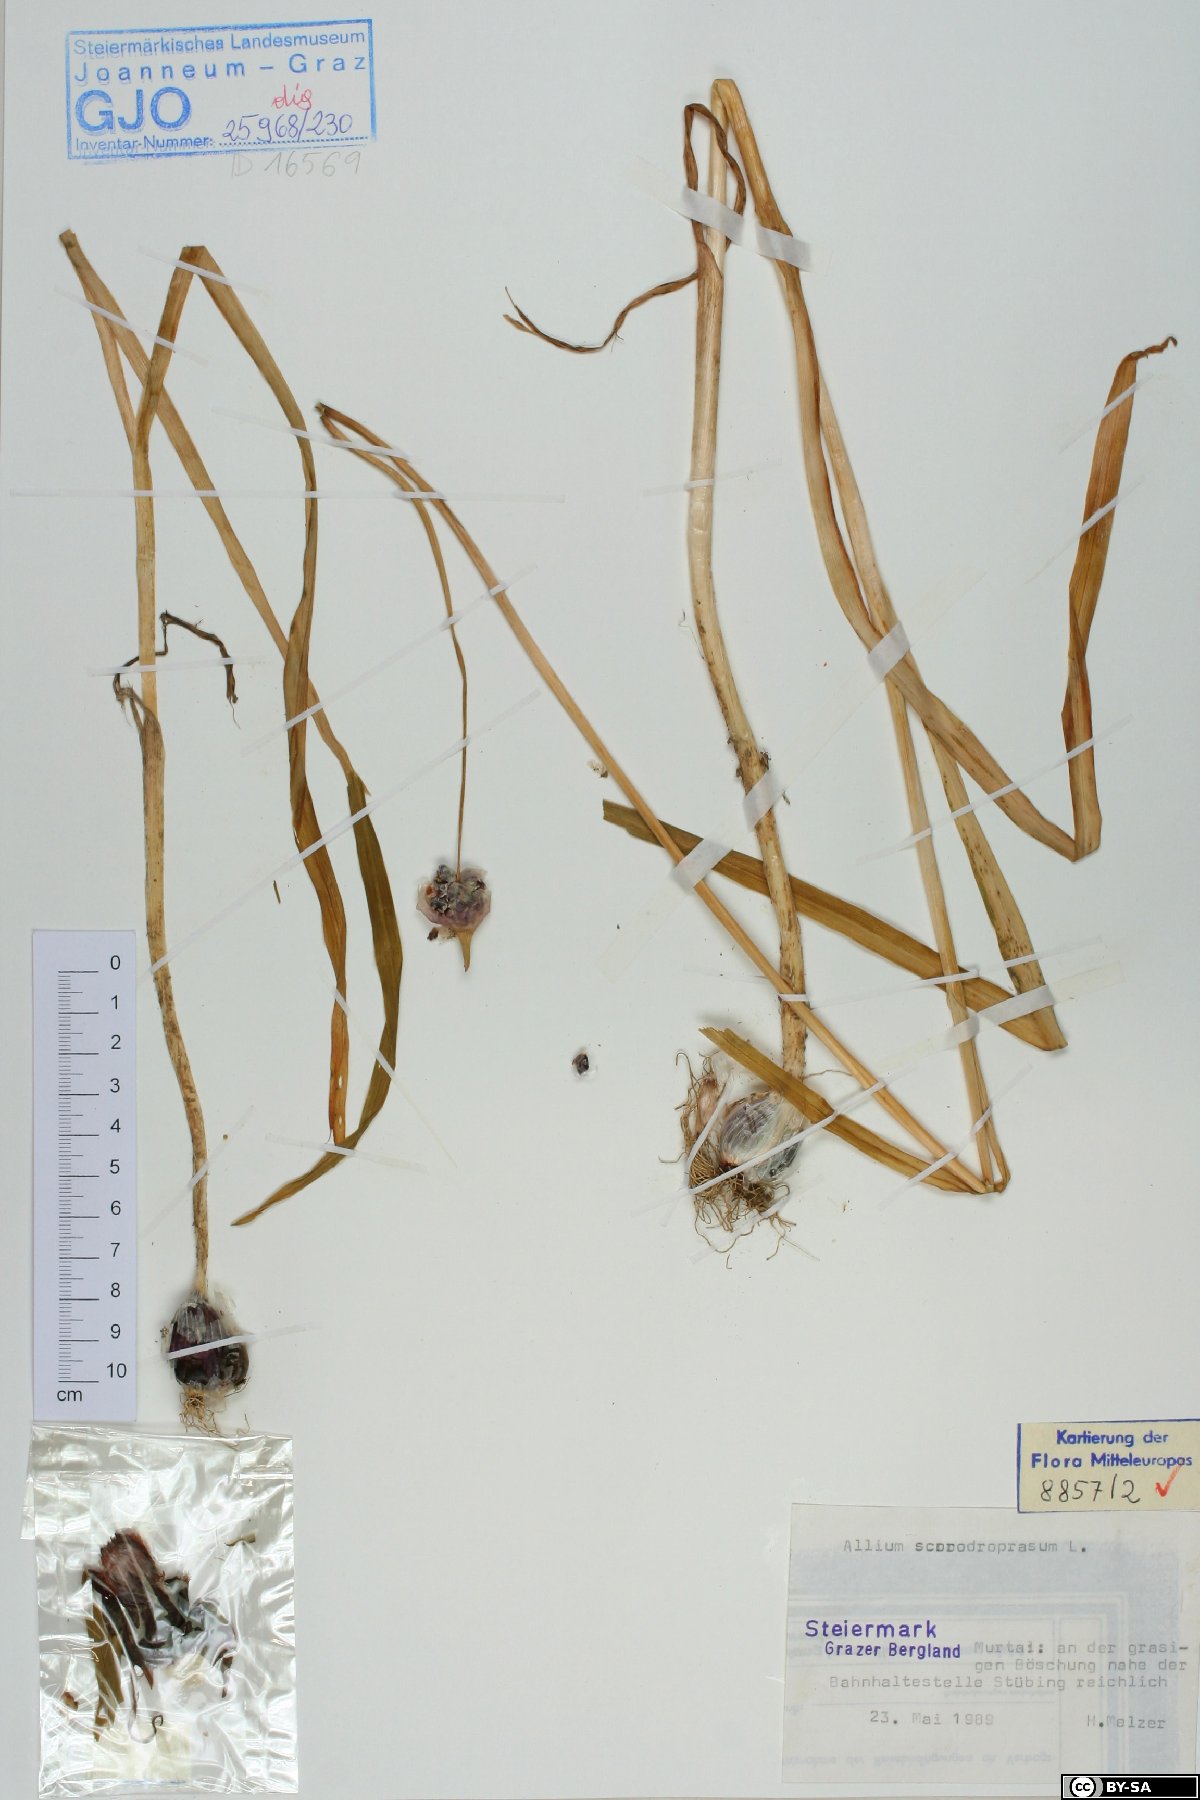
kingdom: Plantae
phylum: Tracheophyta
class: Liliopsida
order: Asparagales
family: Amaryllidaceae
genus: Allium
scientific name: Allium scorodoprasum
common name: Sand leek
